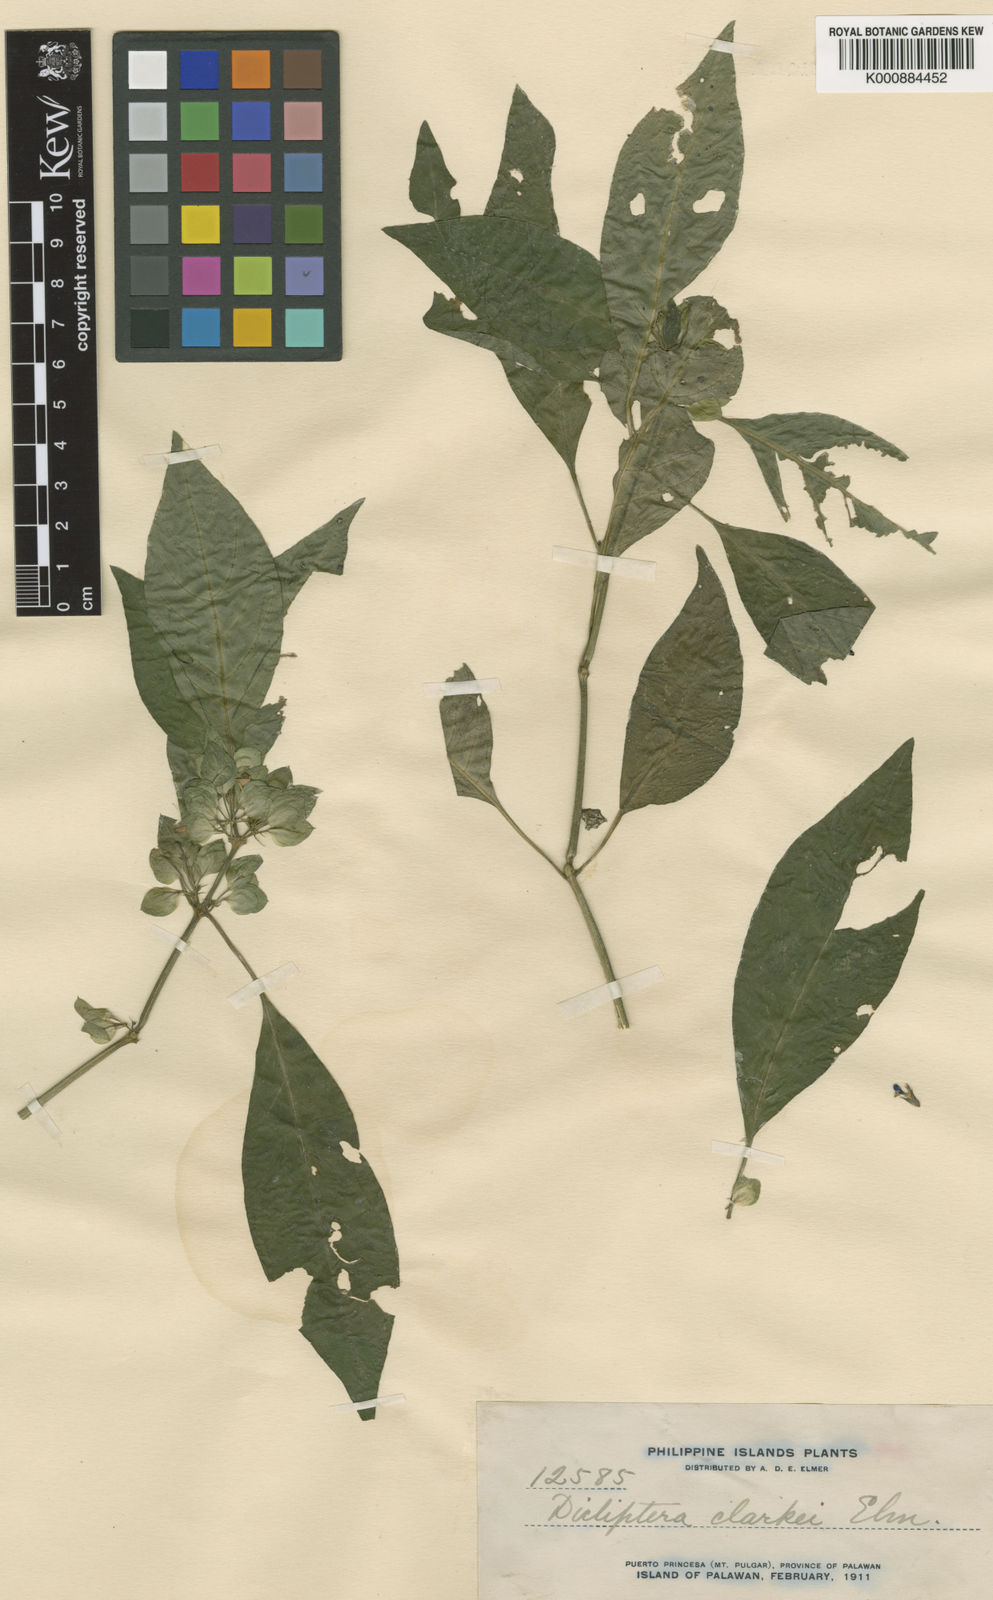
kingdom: Plantae
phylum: Tracheophyta
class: Magnoliopsida
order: Lamiales
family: Acanthaceae
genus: Dicliptera
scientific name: Dicliptera clarkei
